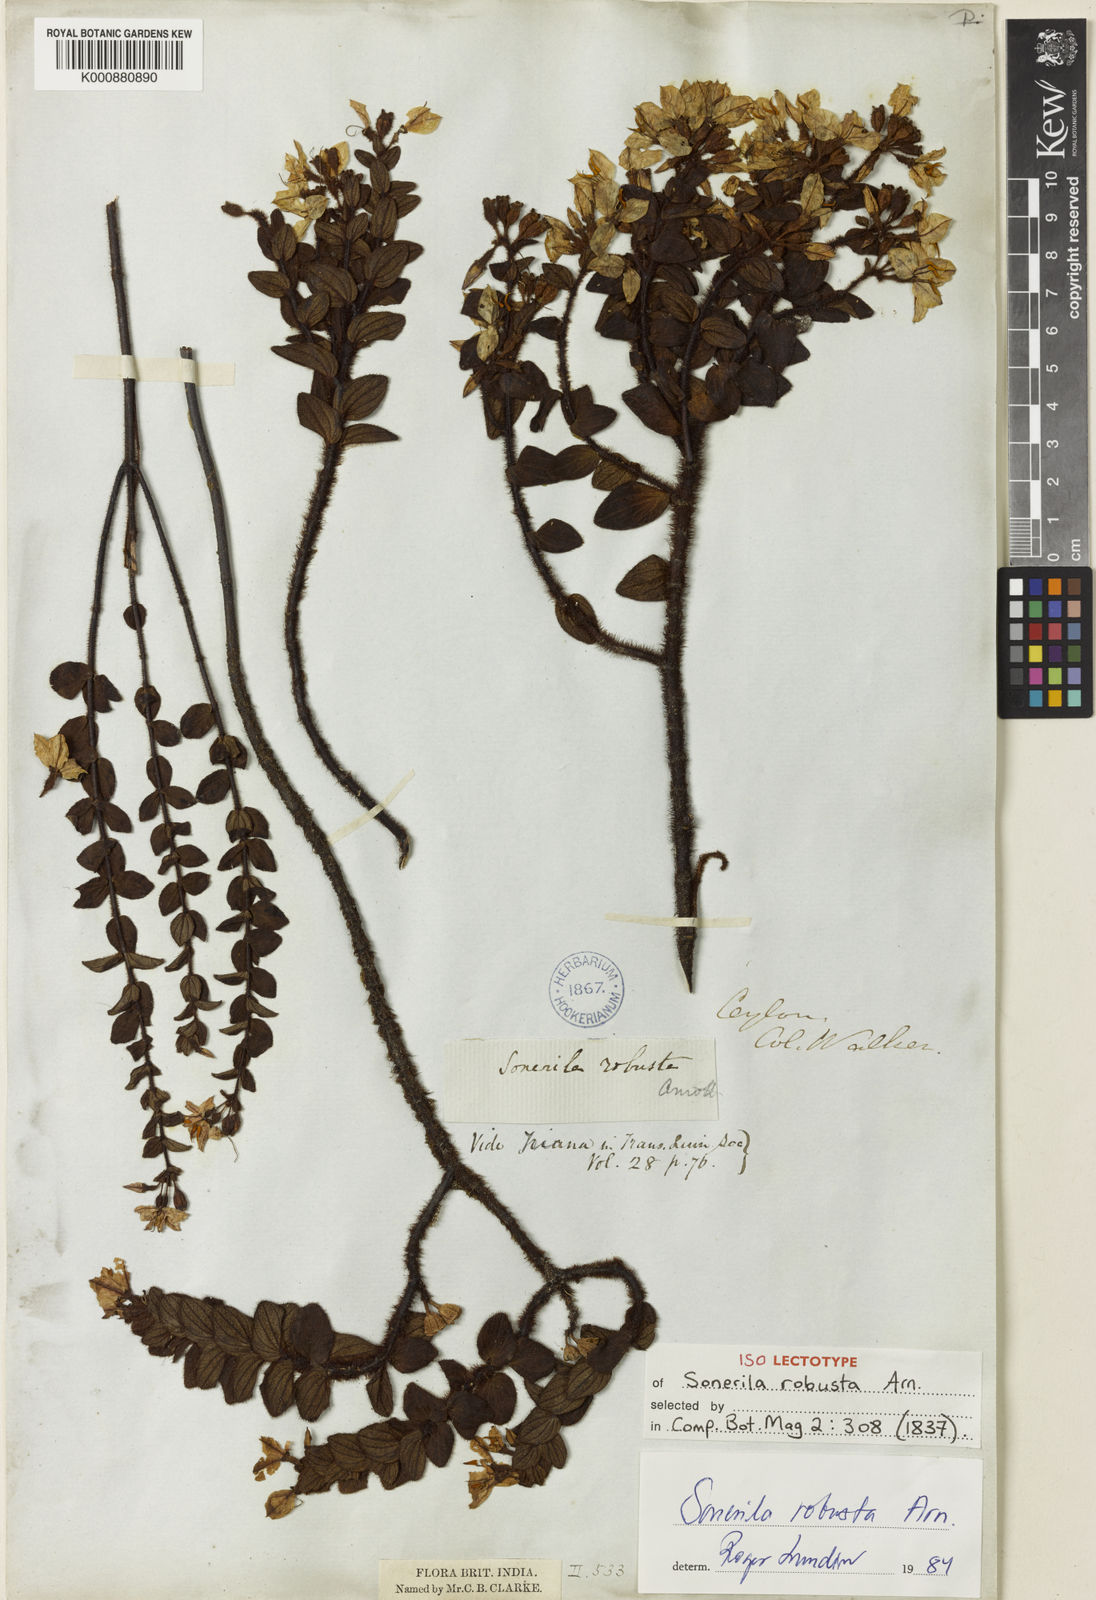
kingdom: Plantae
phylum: Tracheophyta
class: Magnoliopsida
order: Myrtales
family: Melastomataceae
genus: Sonerila
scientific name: Sonerila robusta
